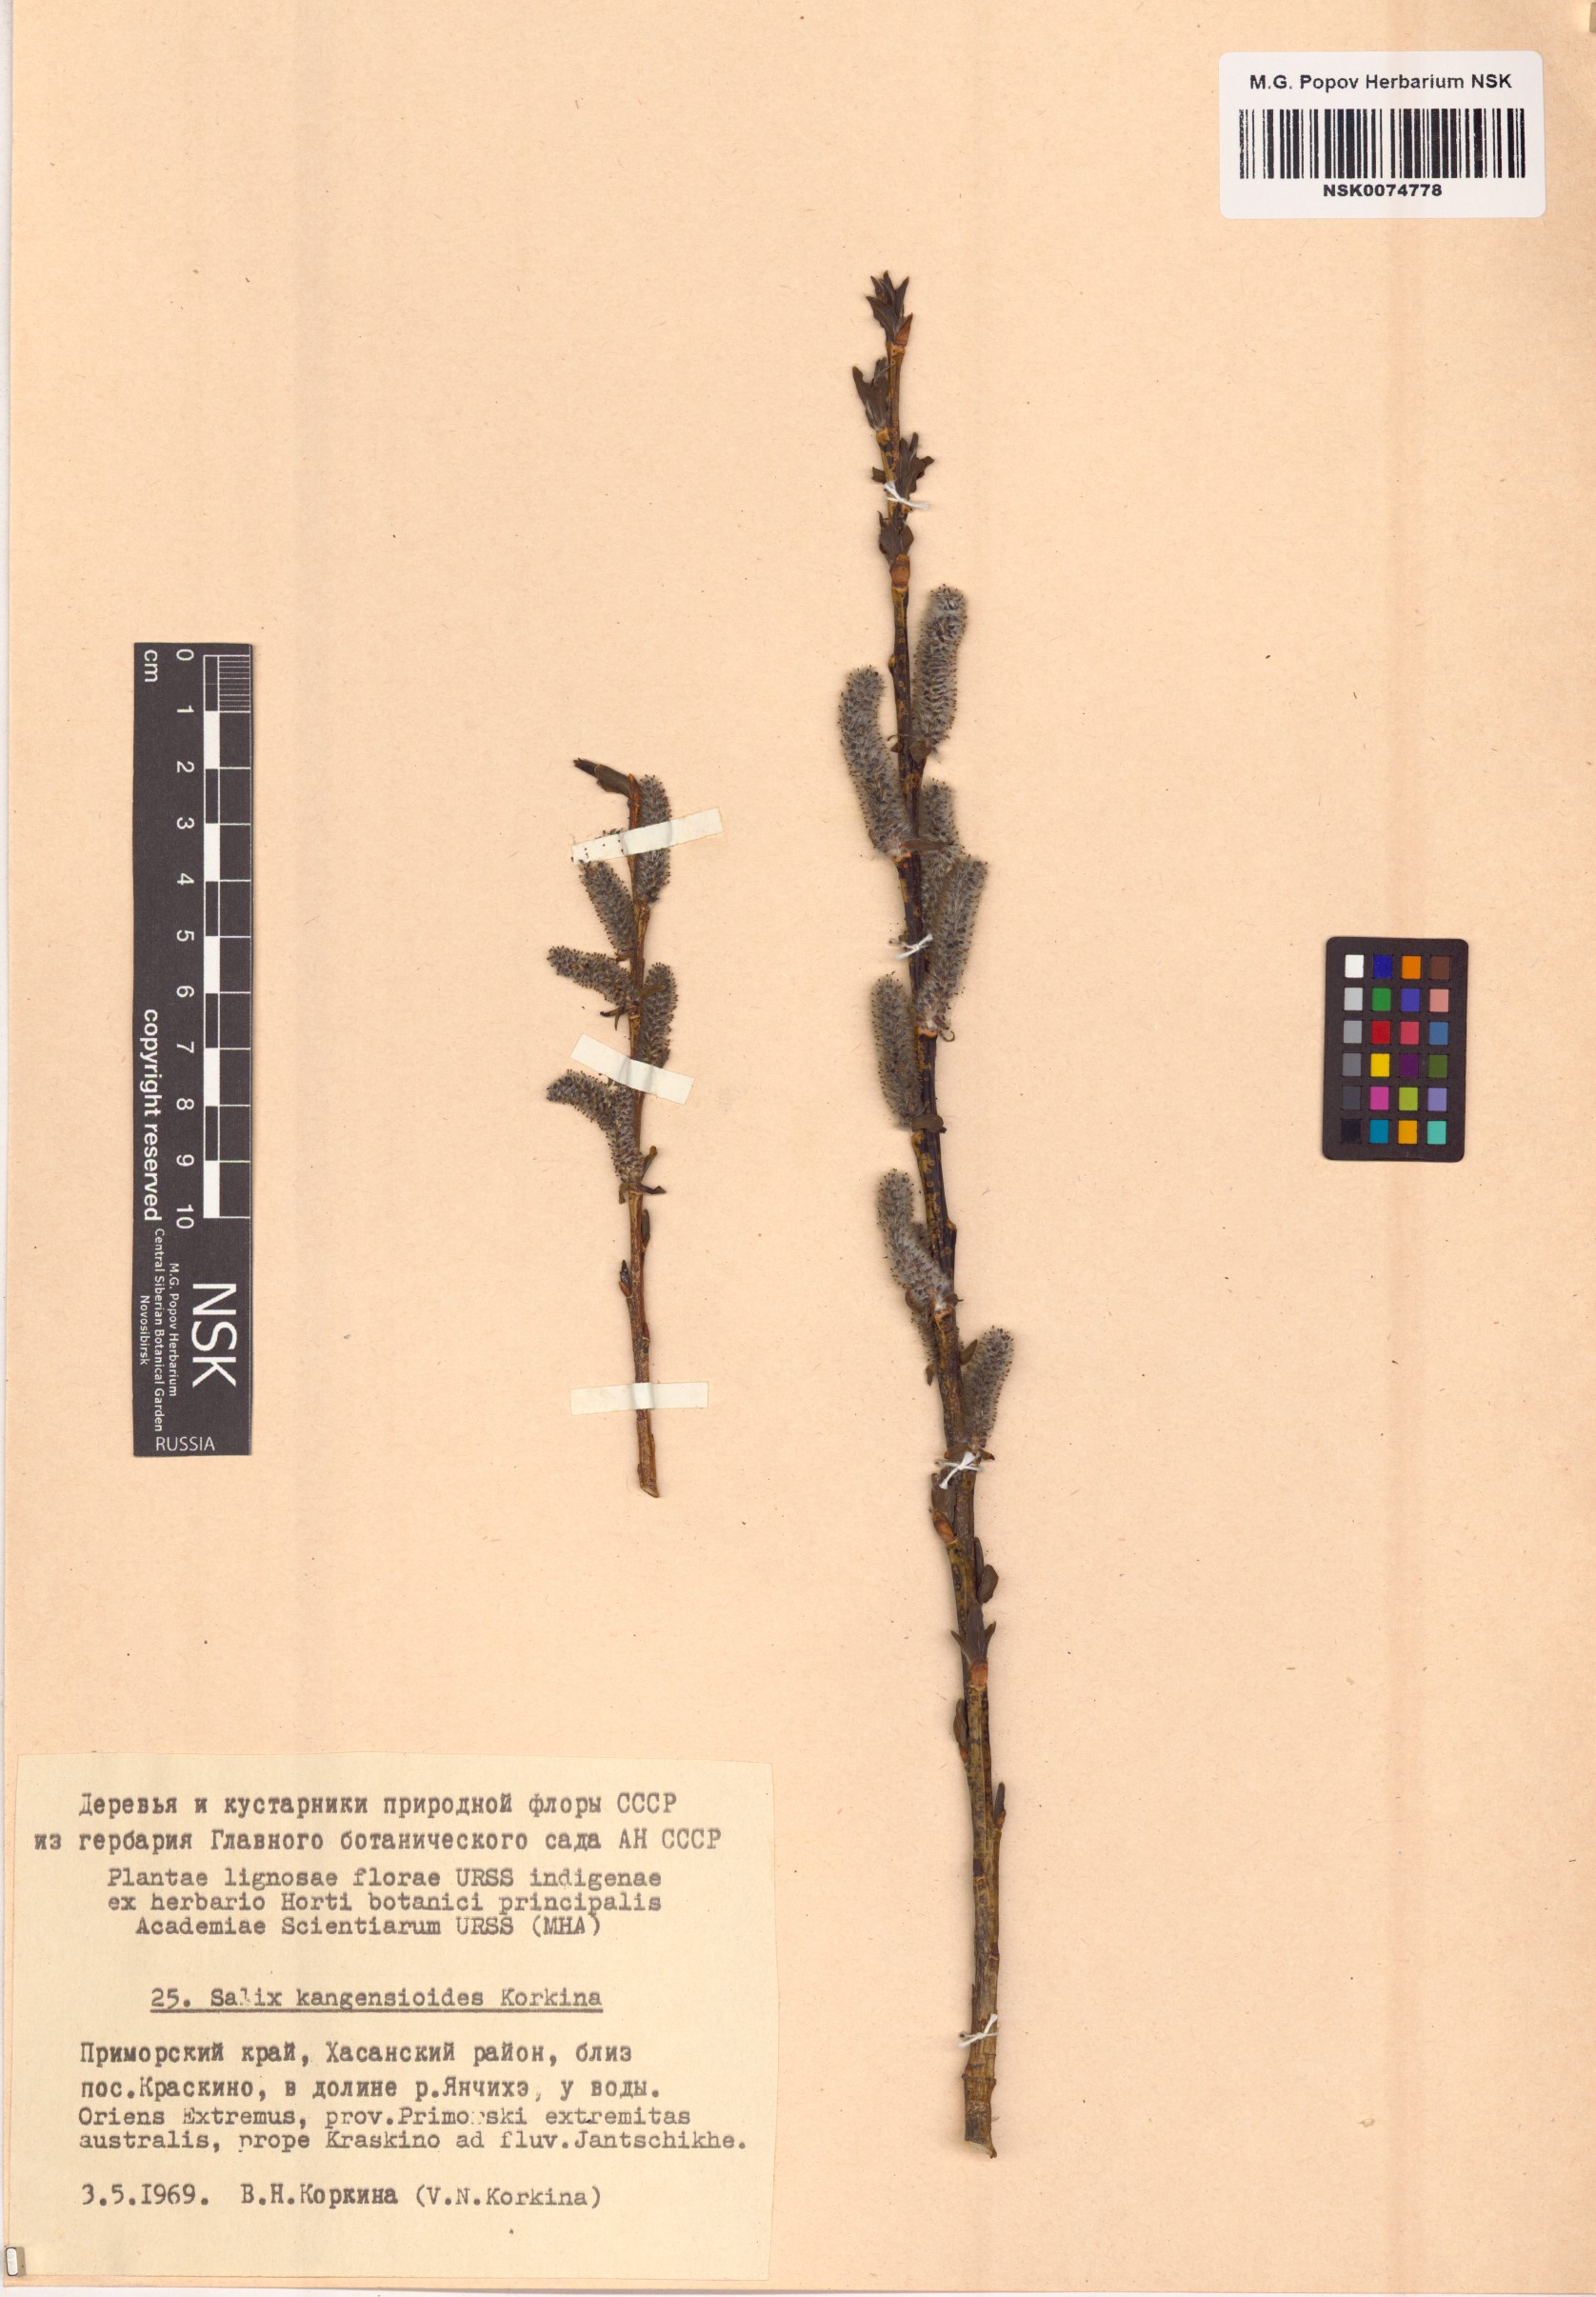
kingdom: Plantae
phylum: Tracheophyta
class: Magnoliopsida
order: Malpighiales
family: Salicaceae
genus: Salix
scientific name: Salix
